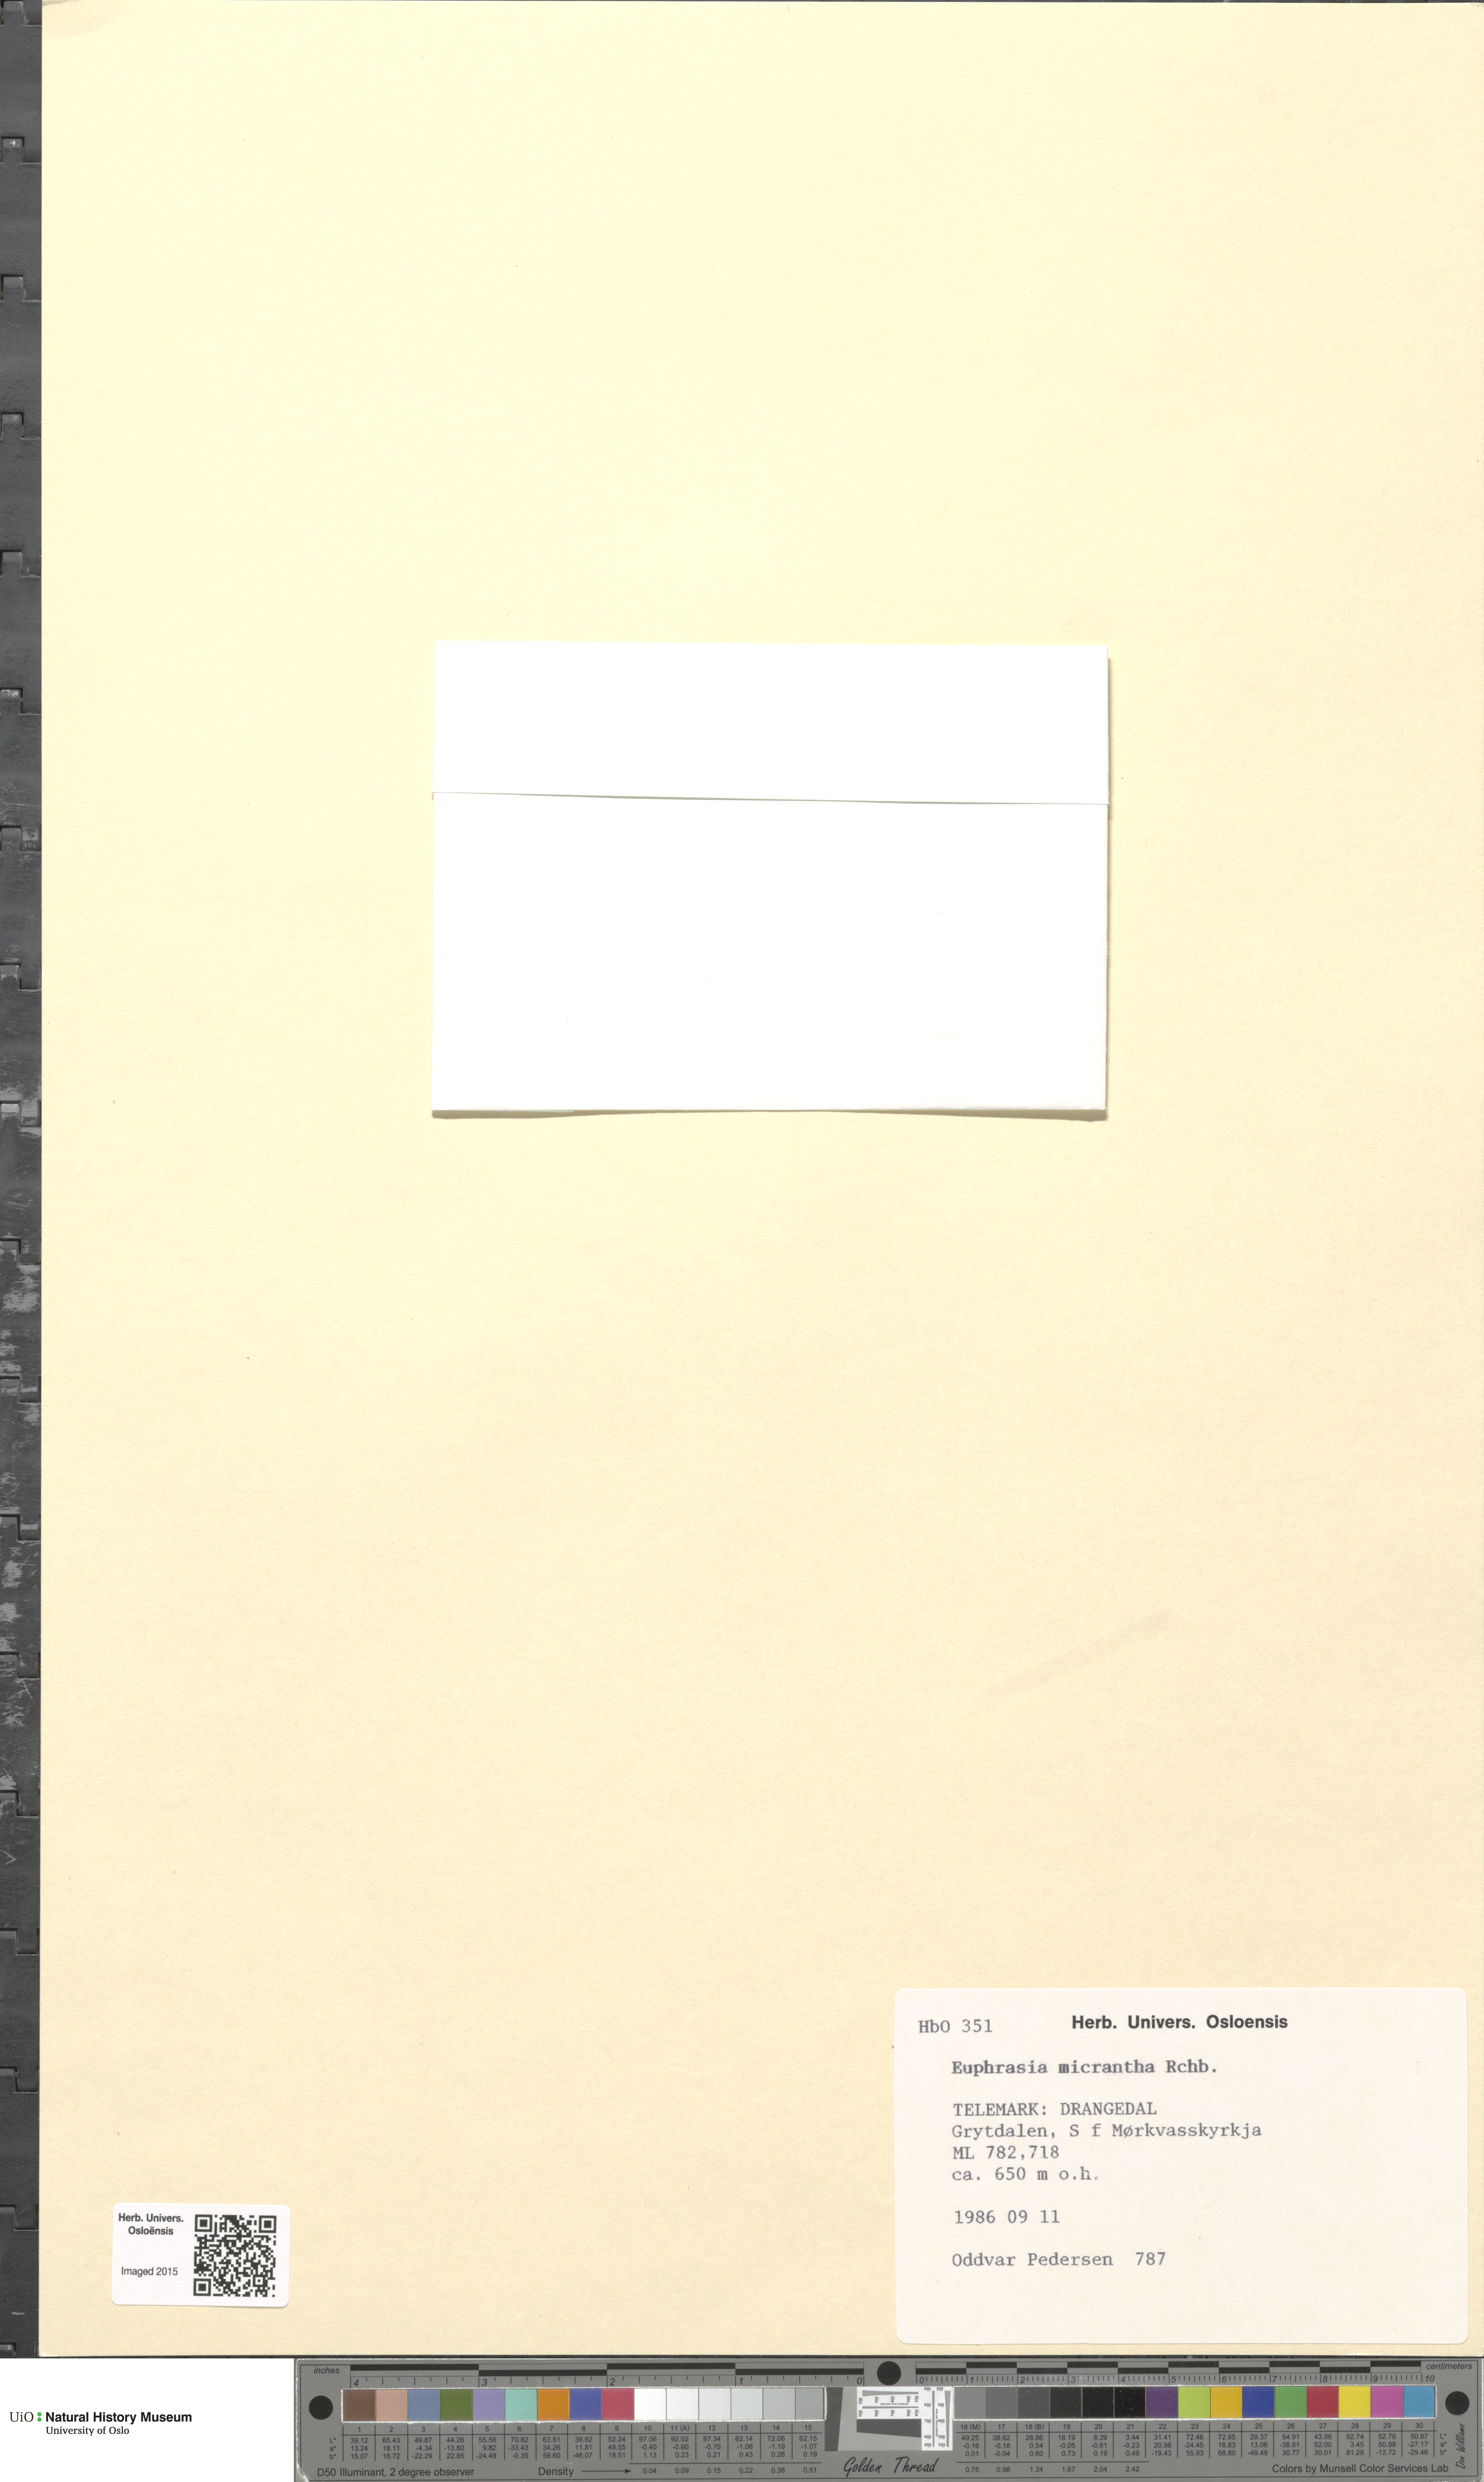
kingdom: Plantae
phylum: Tracheophyta
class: Magnoliopsida
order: Lamiales
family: Orobanchaceae
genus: Euphrasia
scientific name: Euphrasia micrantha
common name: Northern eyebright
